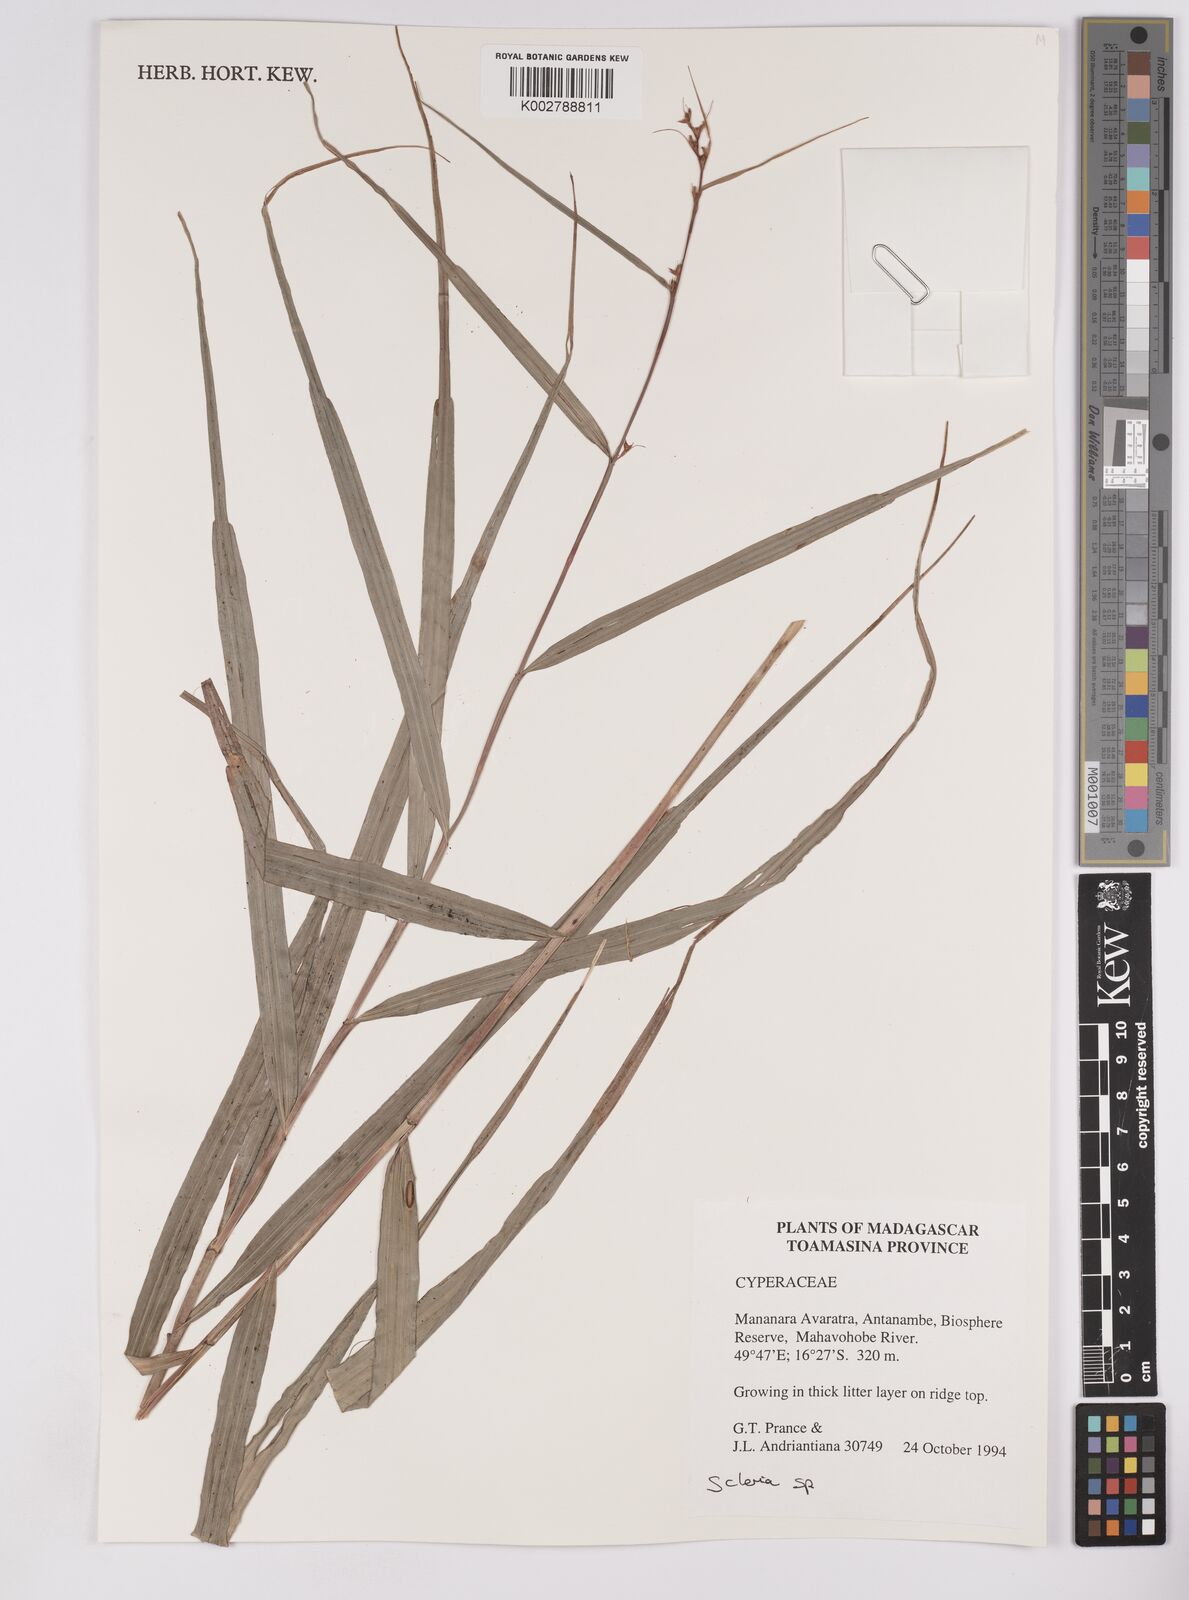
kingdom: Plantae
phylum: Tracheophyta
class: Liliopsida
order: Poales
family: Cyperaceae
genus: Scleria
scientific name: Scleria
